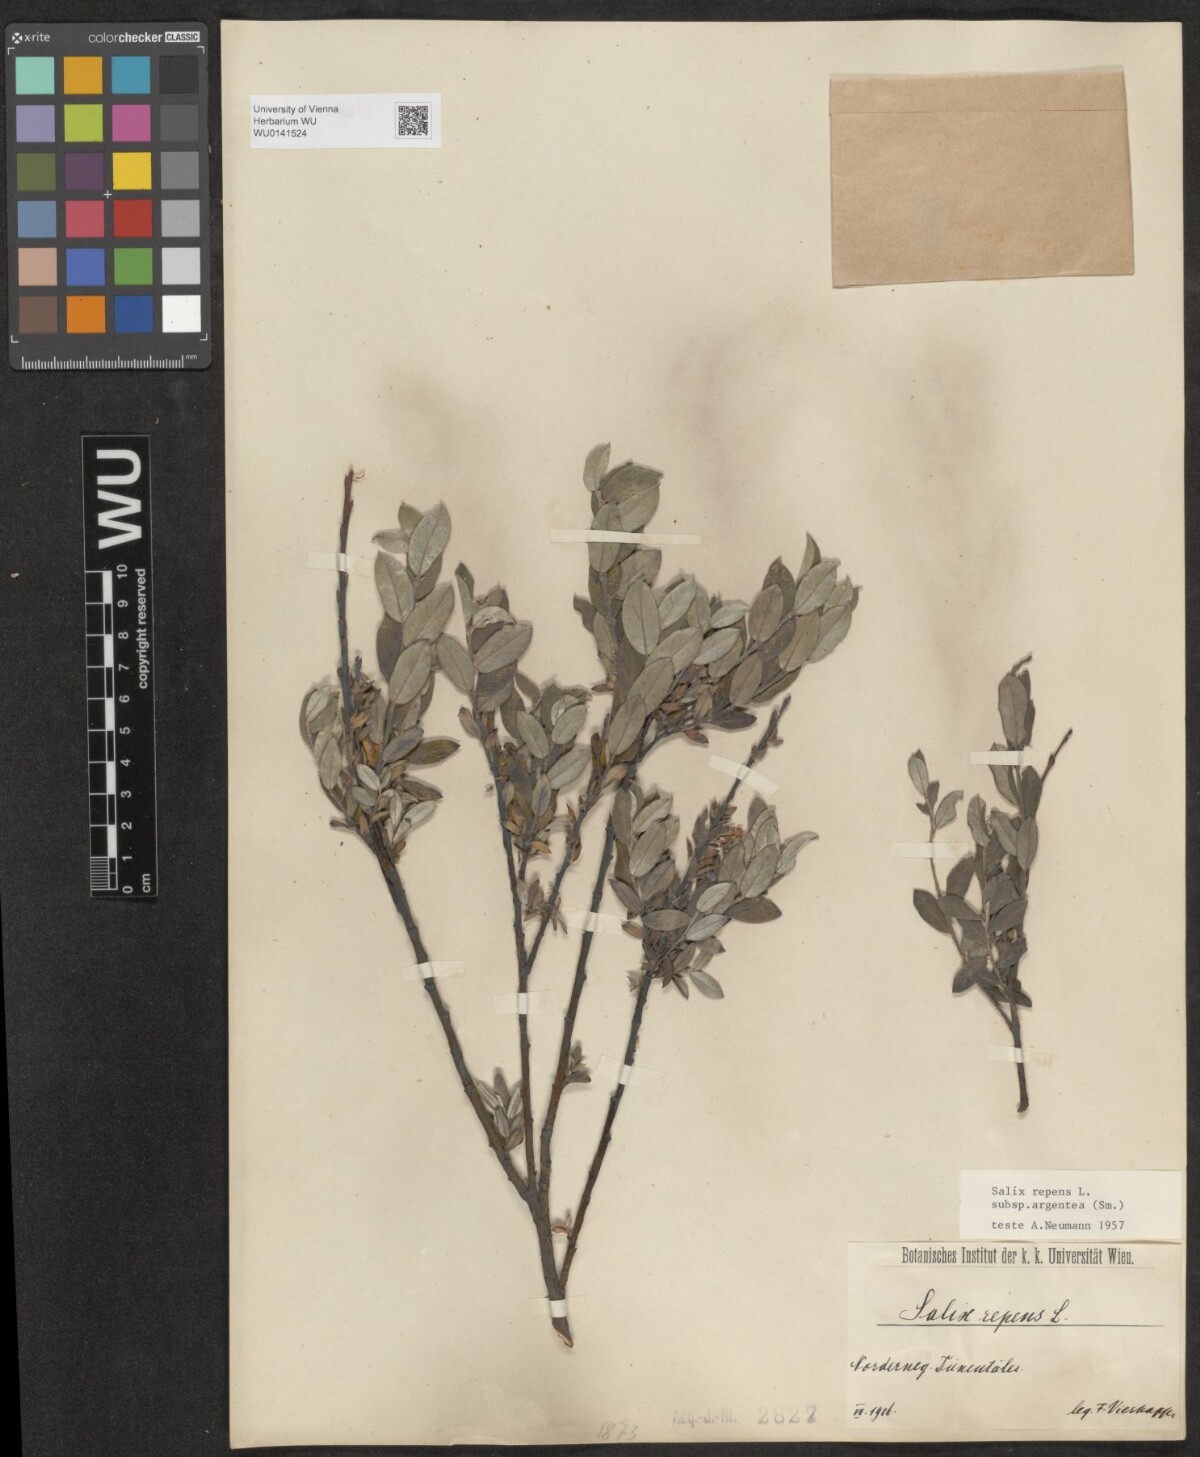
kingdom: Plantae
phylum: Tracheophyta
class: Magnoliopsida
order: Malpighiales
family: Salicaceae
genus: Salix
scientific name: Salix repens
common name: Creeping willow
